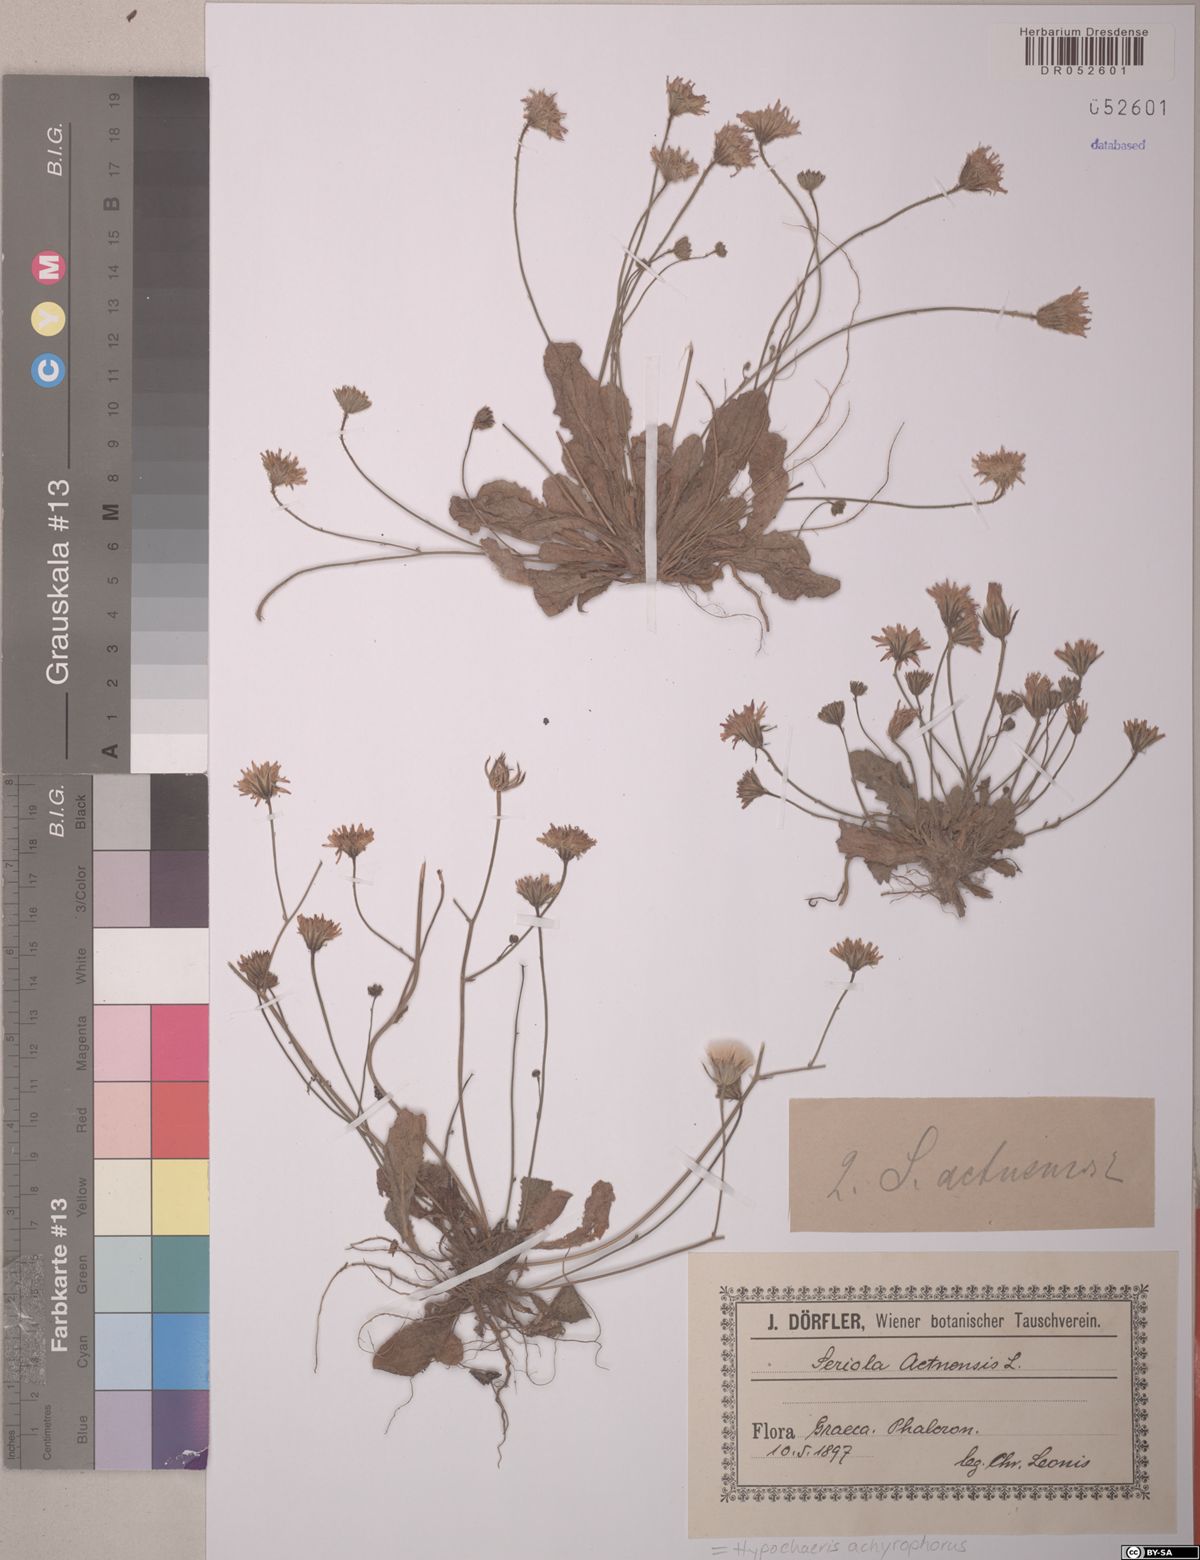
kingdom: Plantae
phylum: Tracheophyta
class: Magnoliopsida
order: Asterales
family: Asteraceae
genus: Achyrophorus
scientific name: Achyrophorus valdesii
